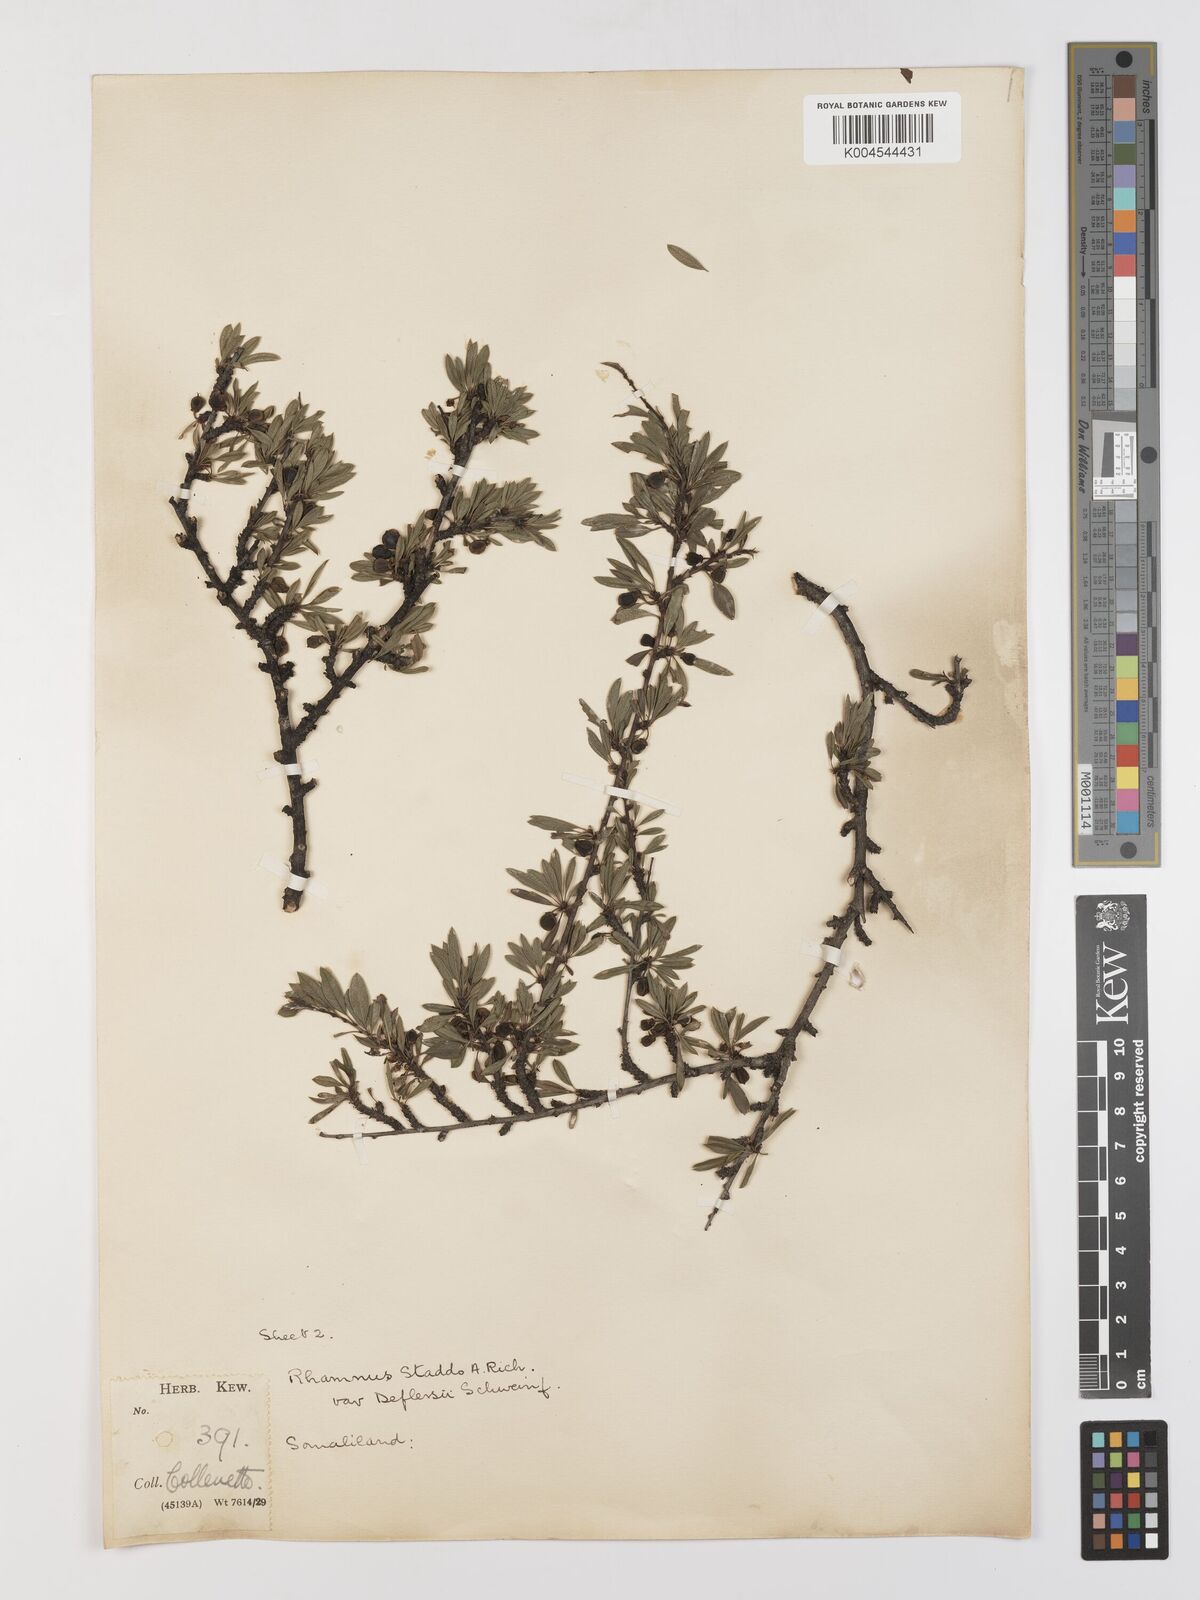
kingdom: Plantae
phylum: Tracheophyta
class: Magnoliopsida
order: Rosales
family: Rhamnaceae
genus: Rhamnus
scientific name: Rhamnus staddo
